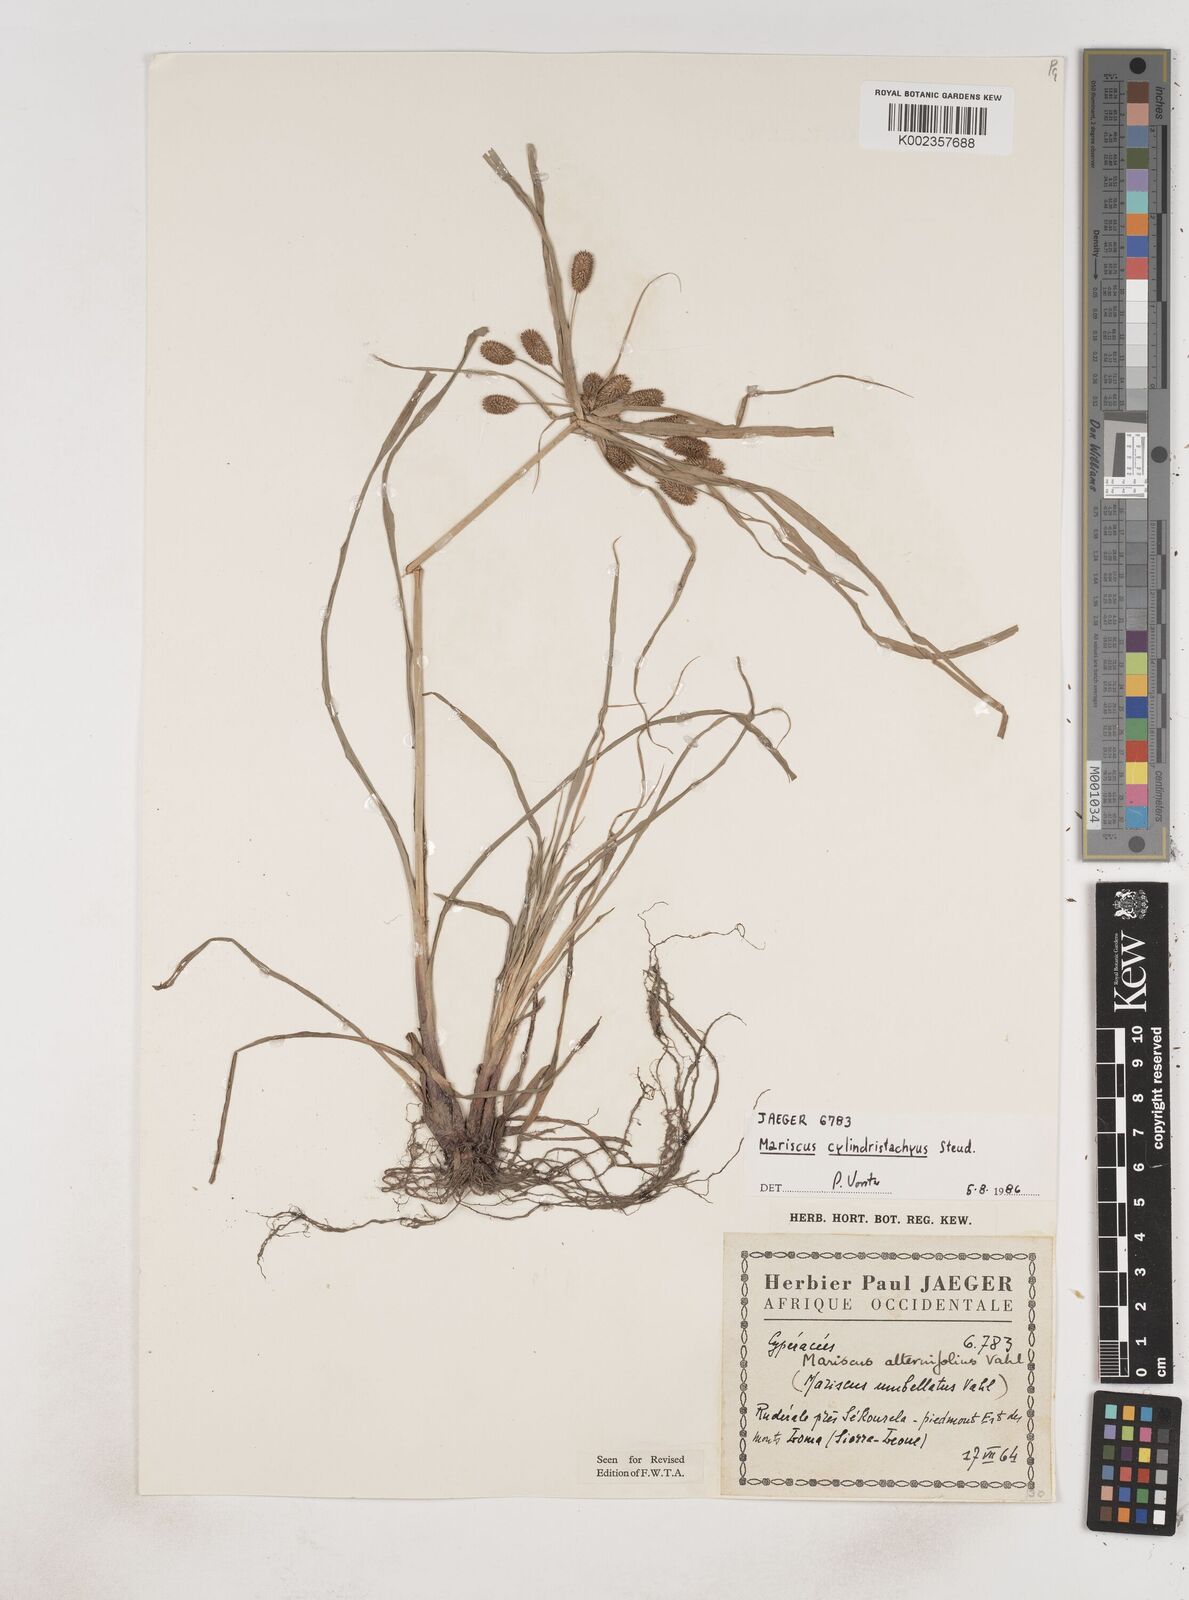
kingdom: Plantae
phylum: Tracheophyta
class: Liliopsida
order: Poales
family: Cyperaceae
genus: Cyperus
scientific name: Cyperus sublimis
